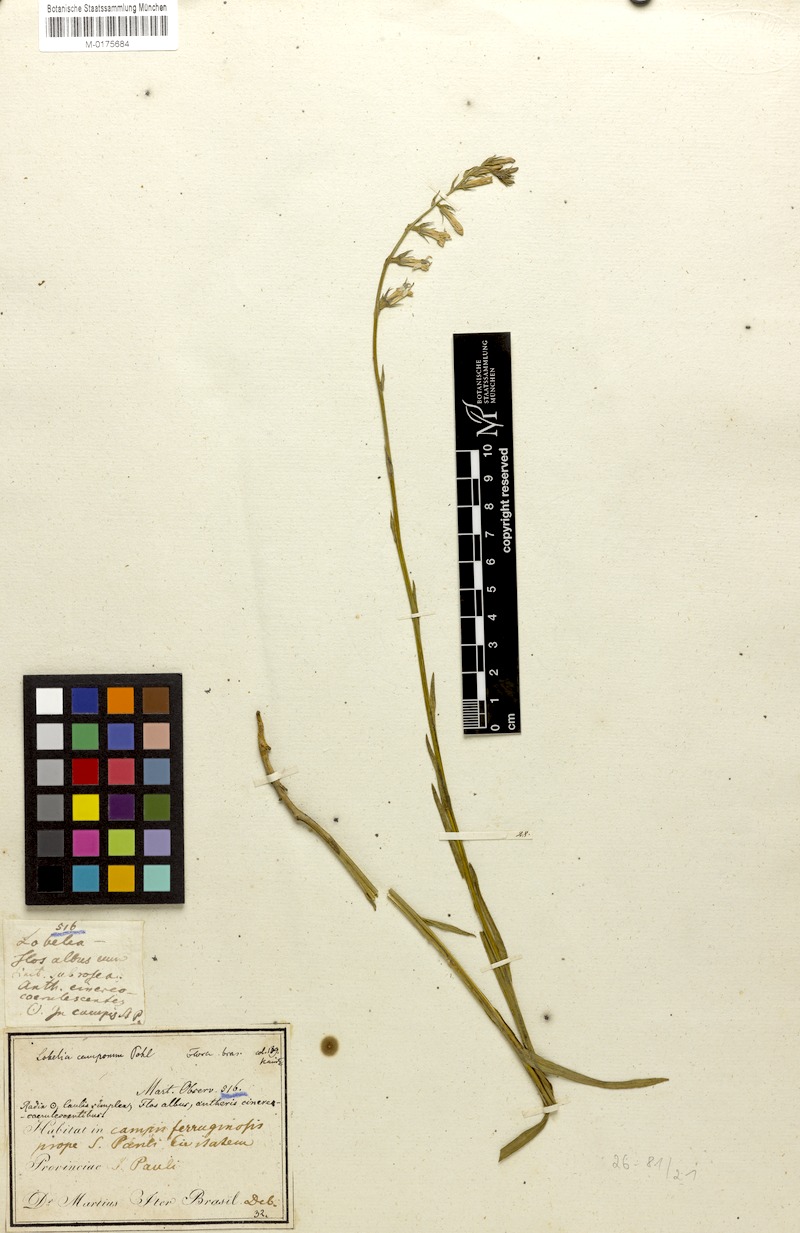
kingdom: Plantae
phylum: Tracheophyta
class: Magnoliopsida
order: Asterales
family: Campanulaceae
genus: Lobelia
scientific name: Lobelia camporum
